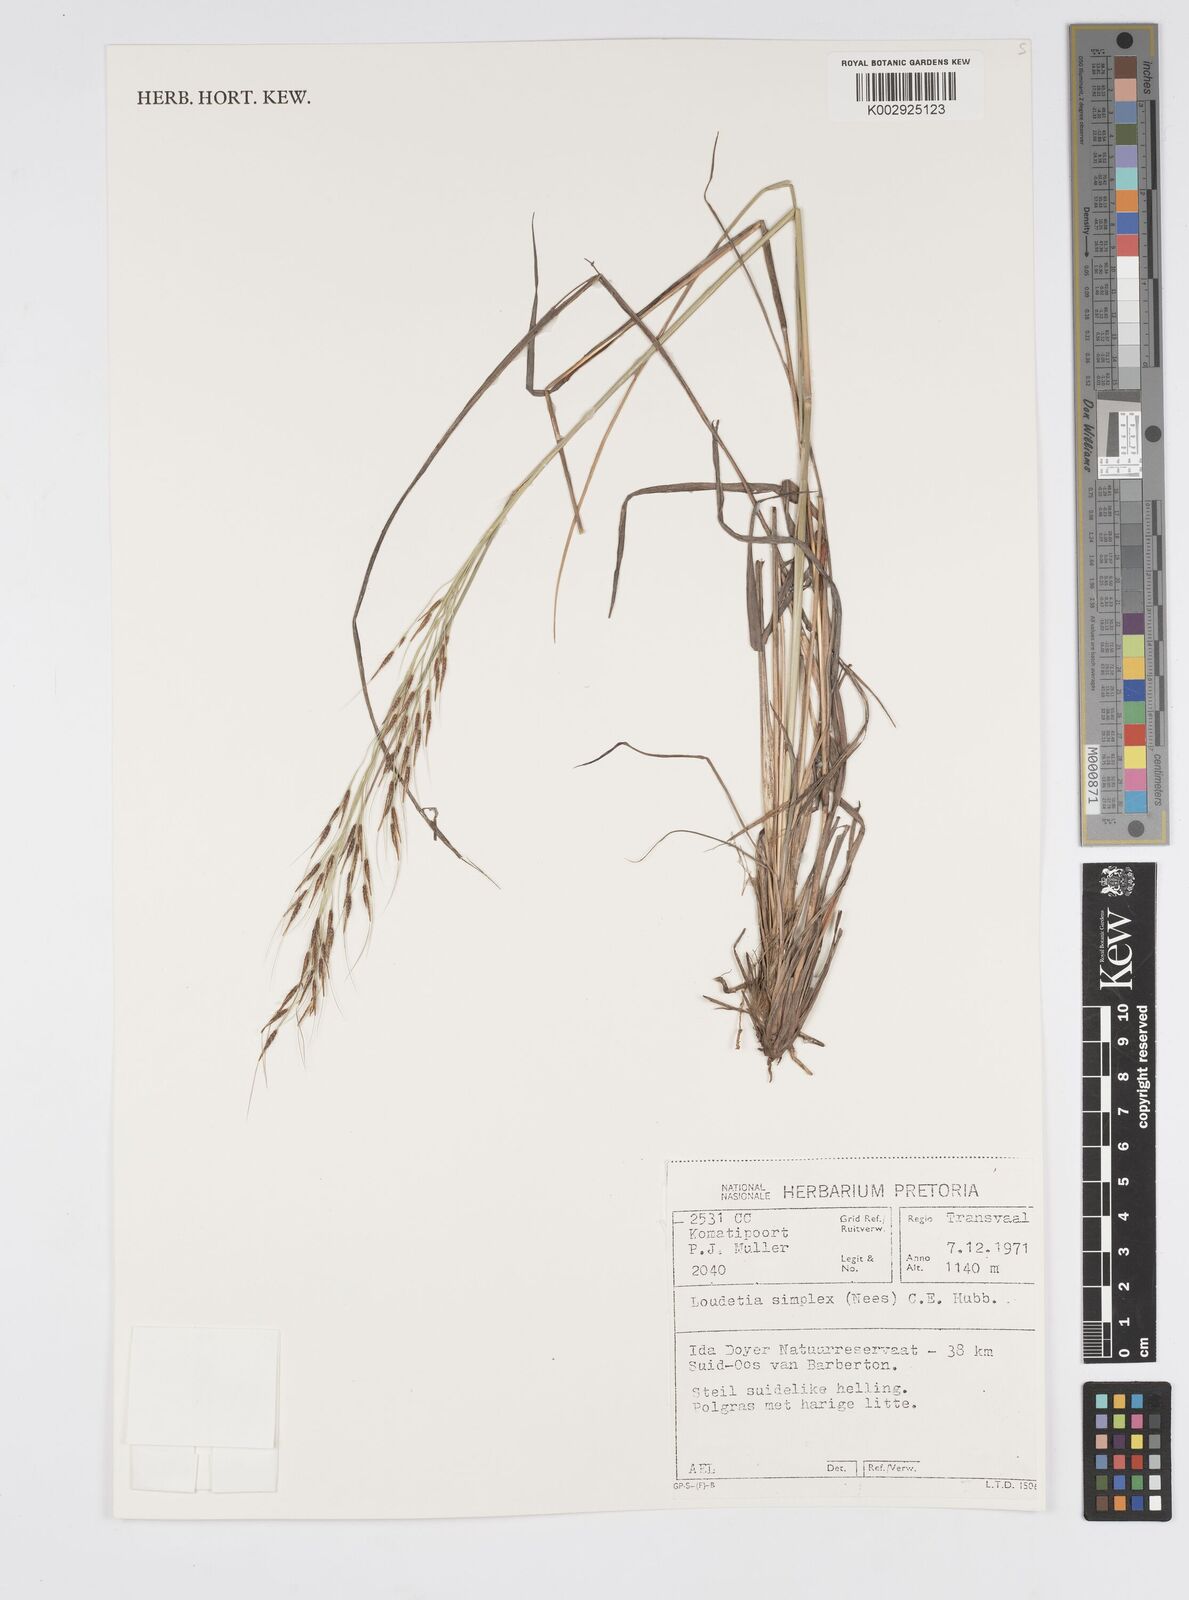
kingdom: Plantae
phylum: Tracheophyta
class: Liliopsida
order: Poales
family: Poaceae
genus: Loudetia
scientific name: Loudetia simplex
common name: Common russet grass
